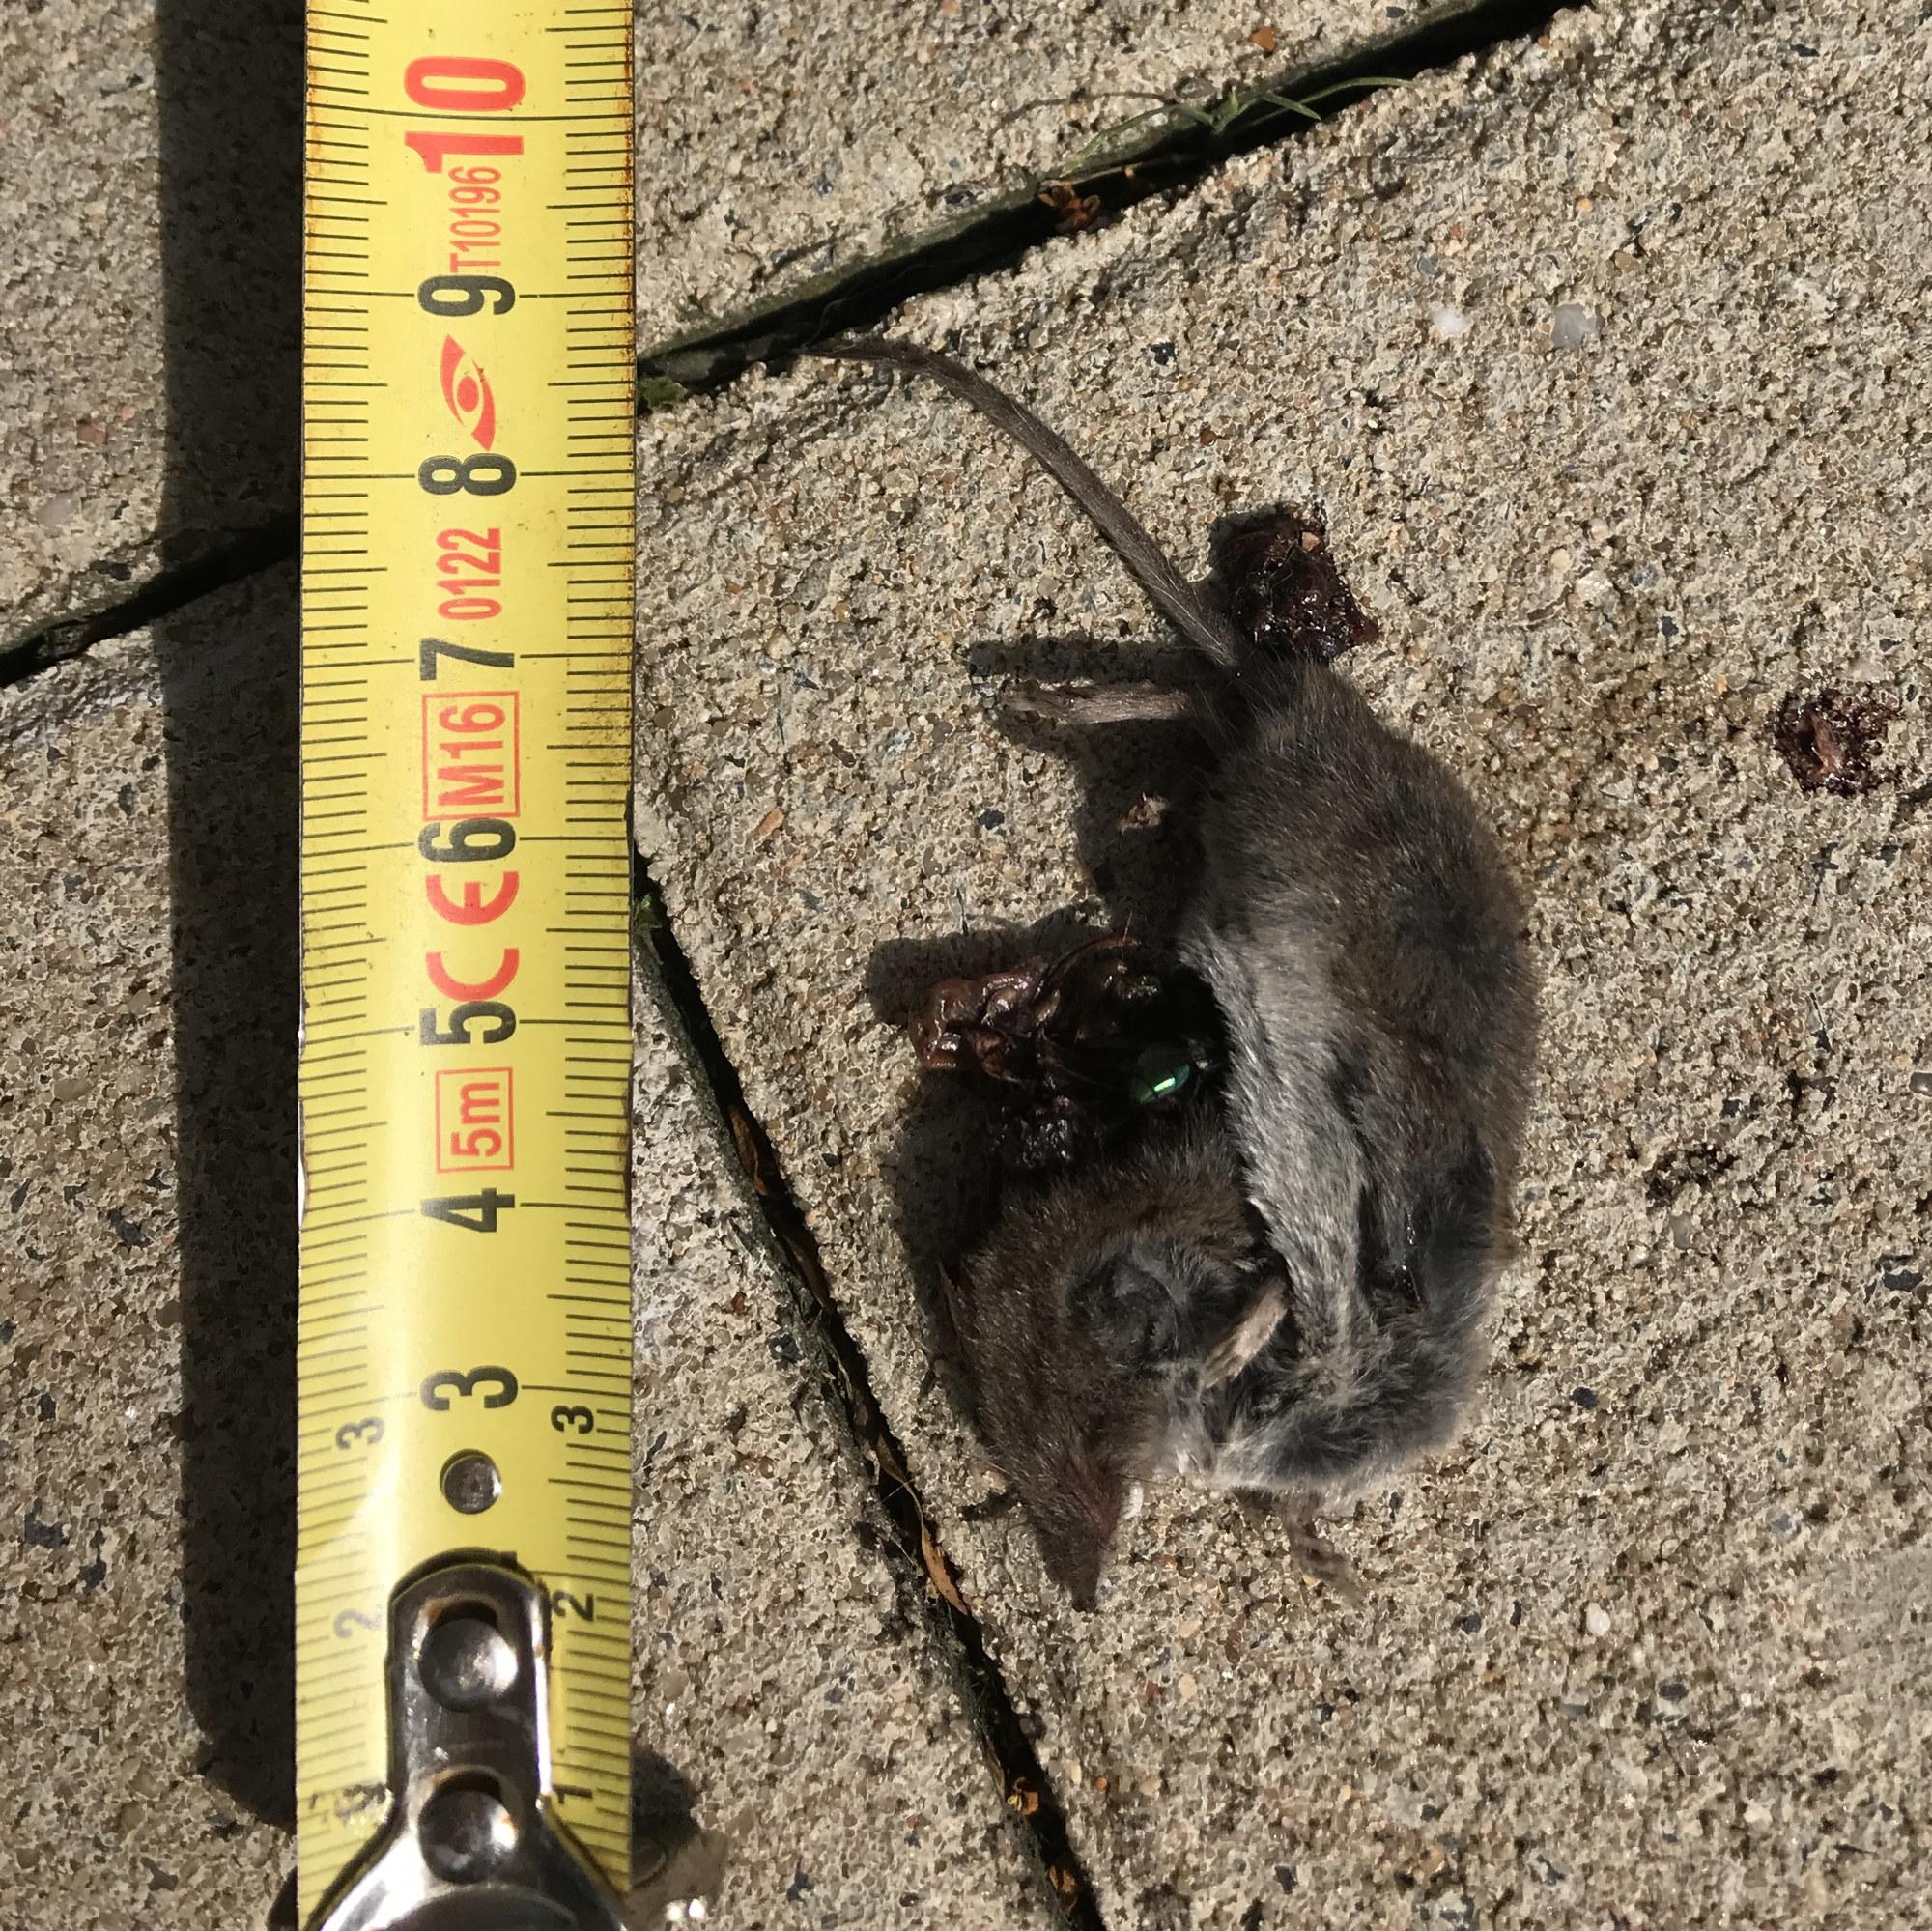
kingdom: Animalia
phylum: Chordata
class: Mammalia
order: Soricomorpha
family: Soricidae
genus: Crocidura
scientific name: Crocidura
